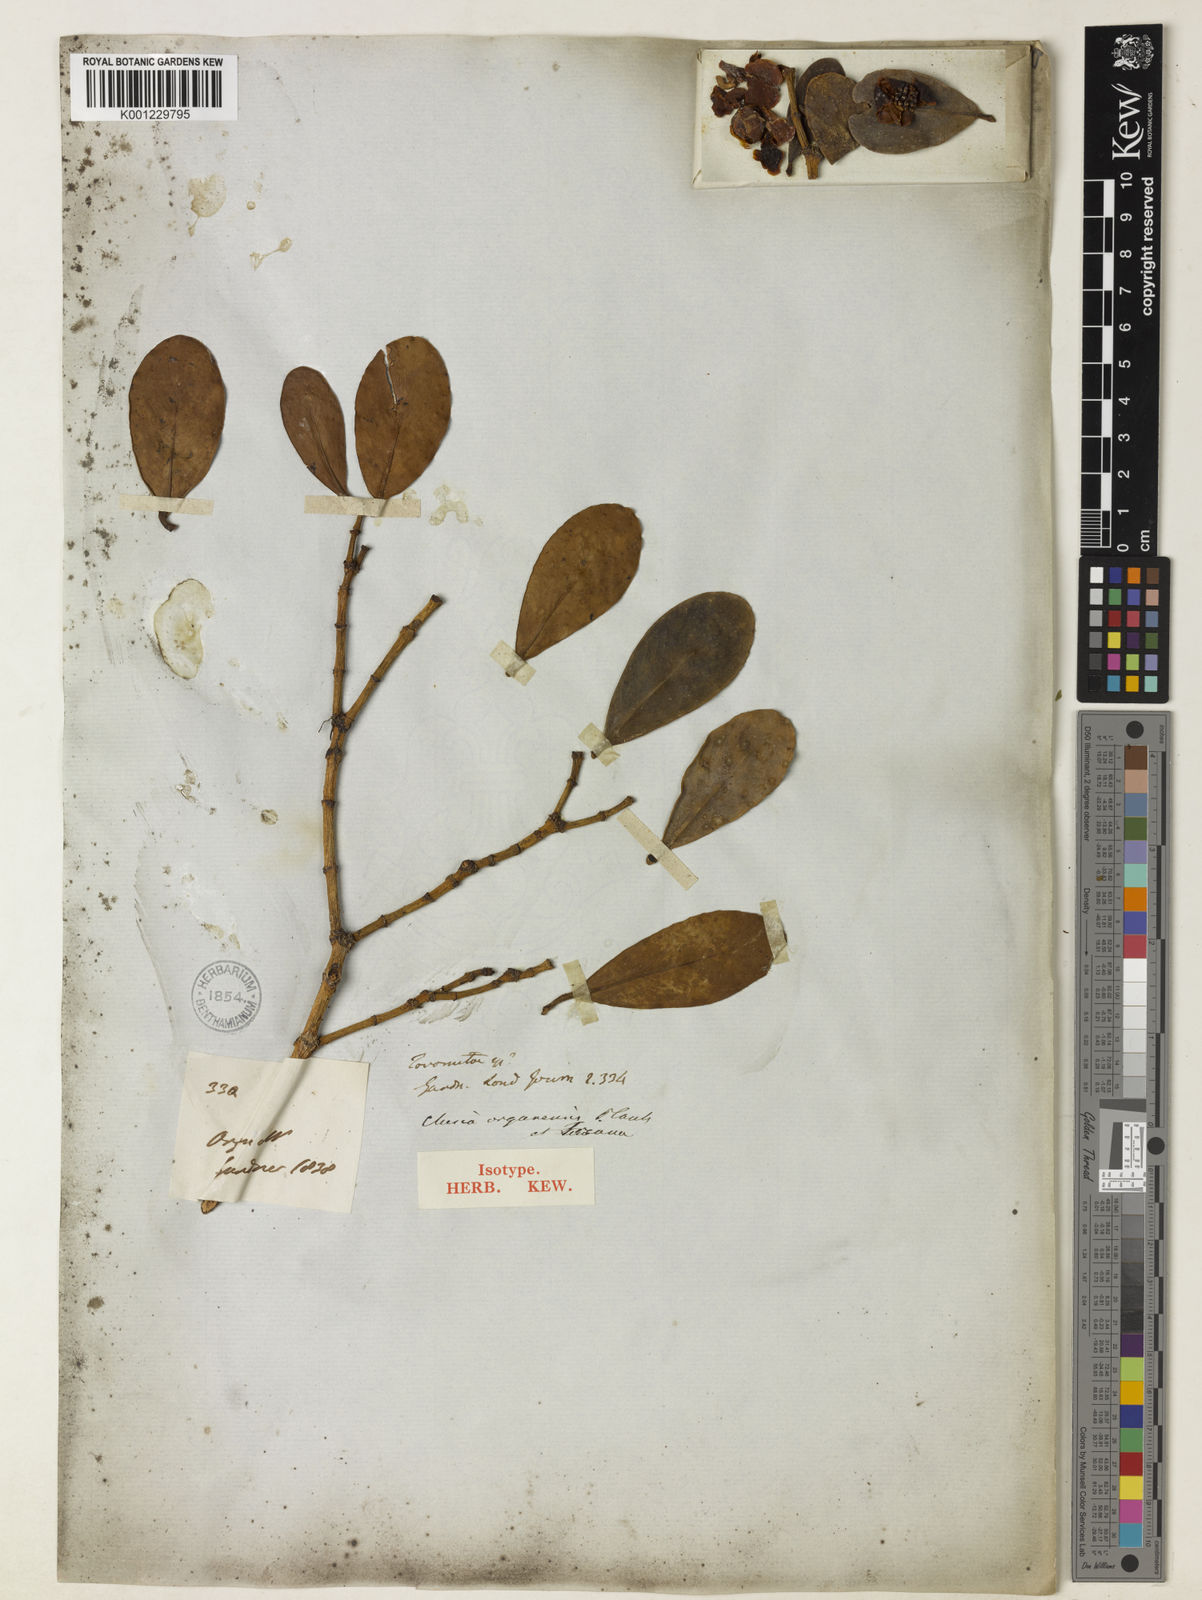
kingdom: Plantae
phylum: Tracheophyta
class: Magnoliopsida
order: Malpighiales
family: Clusiaceae
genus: Clusia
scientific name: Clusia organensis
